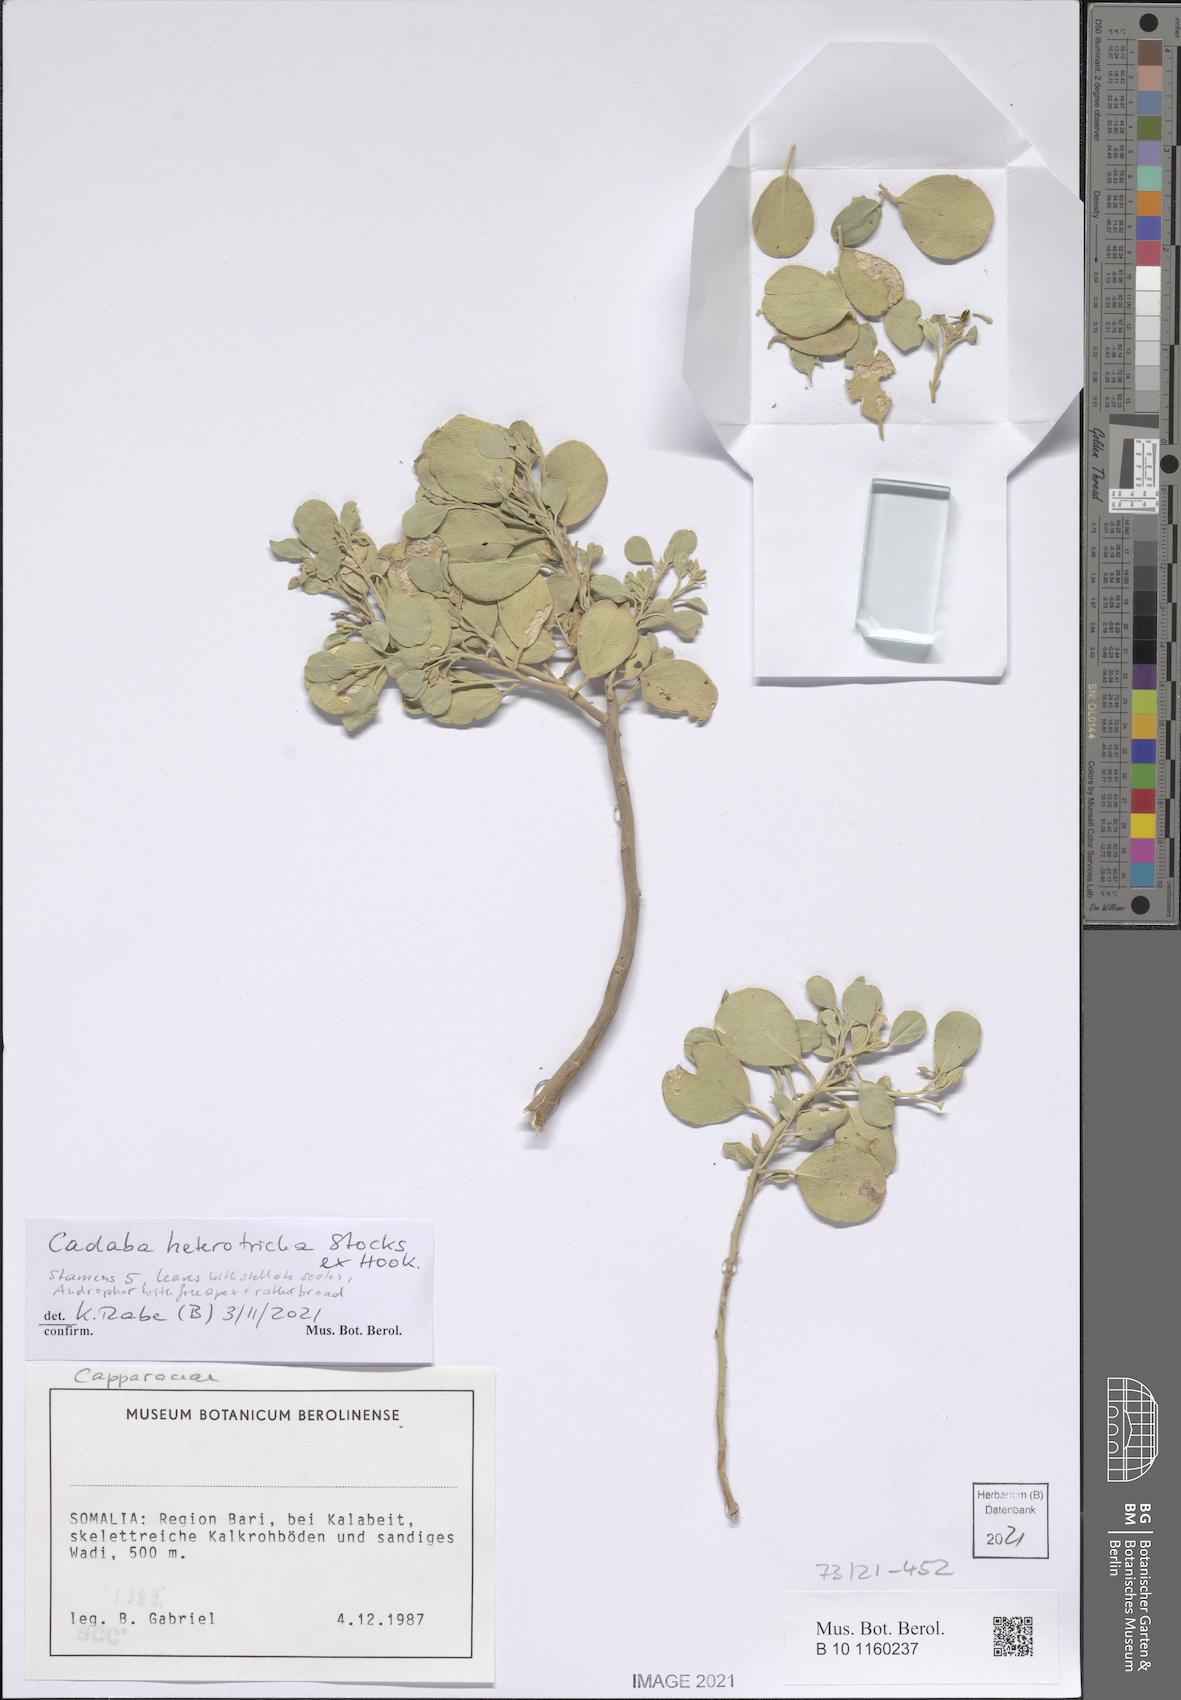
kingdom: Plantae
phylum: Tracheophyta
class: Magnoliopsida
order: Brassicales
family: Capparaceae
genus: Cadaba
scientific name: Cadaba linearifolia
